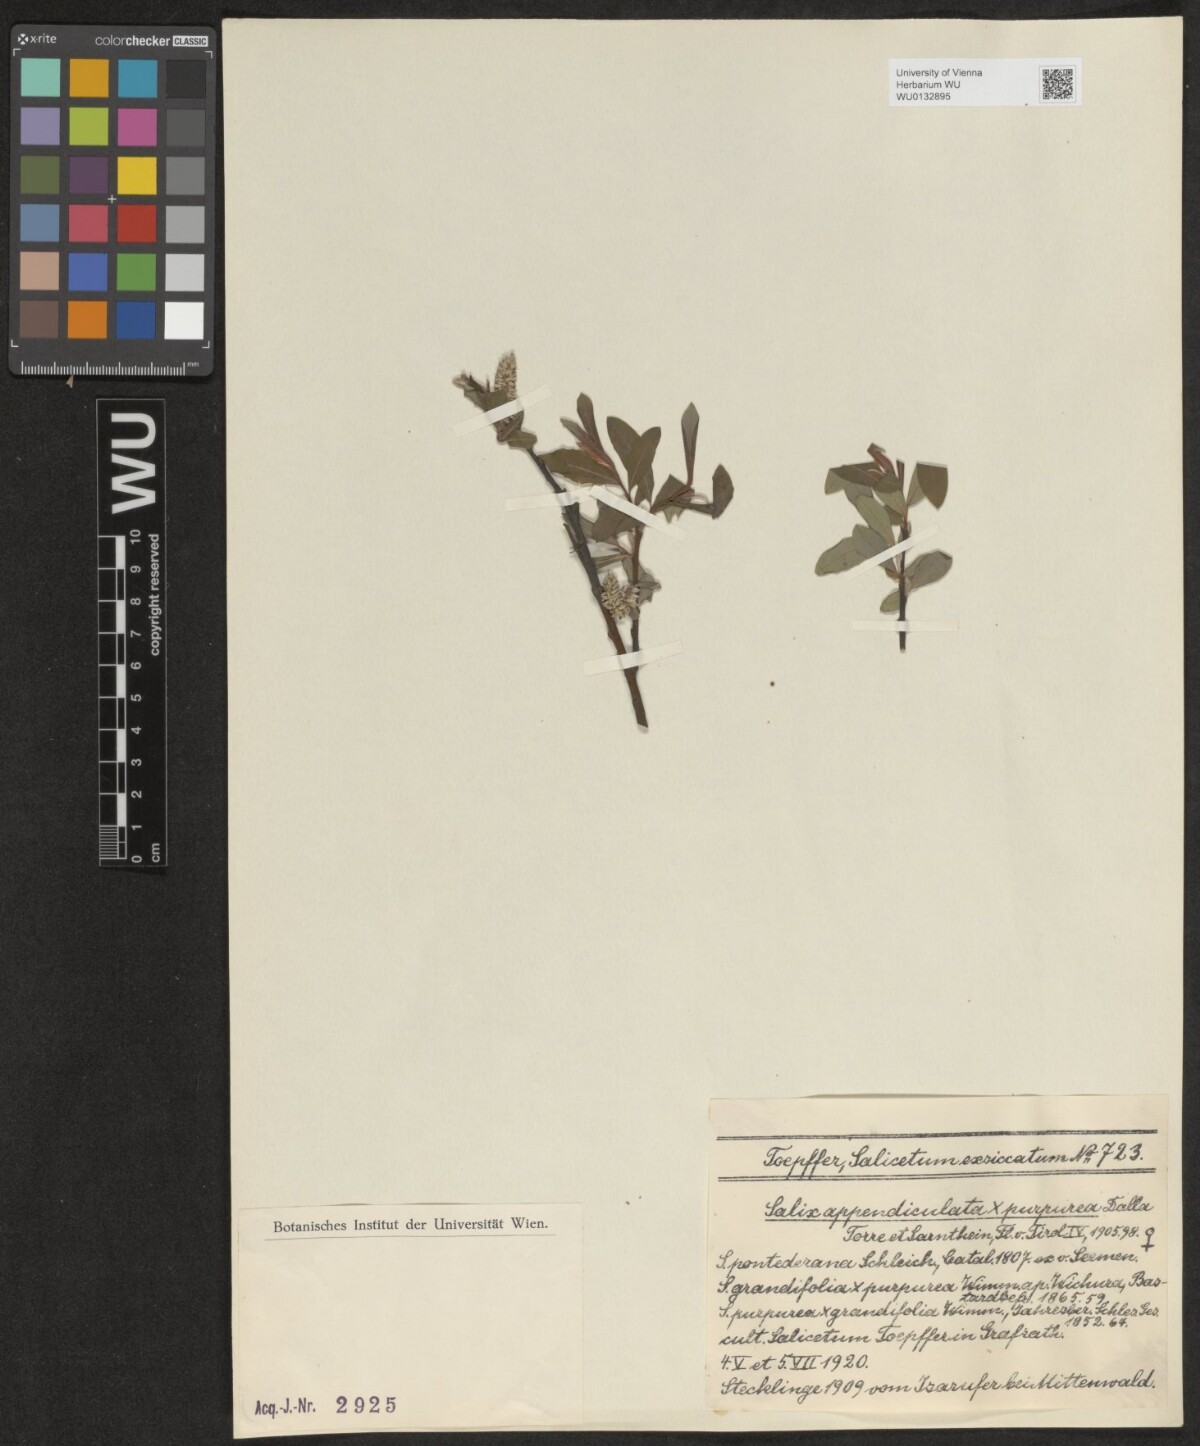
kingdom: Plantae
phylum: Tracheophyta
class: Magnoliopsida
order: Malpighiales
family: Salicaceae
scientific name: Salicaceae
